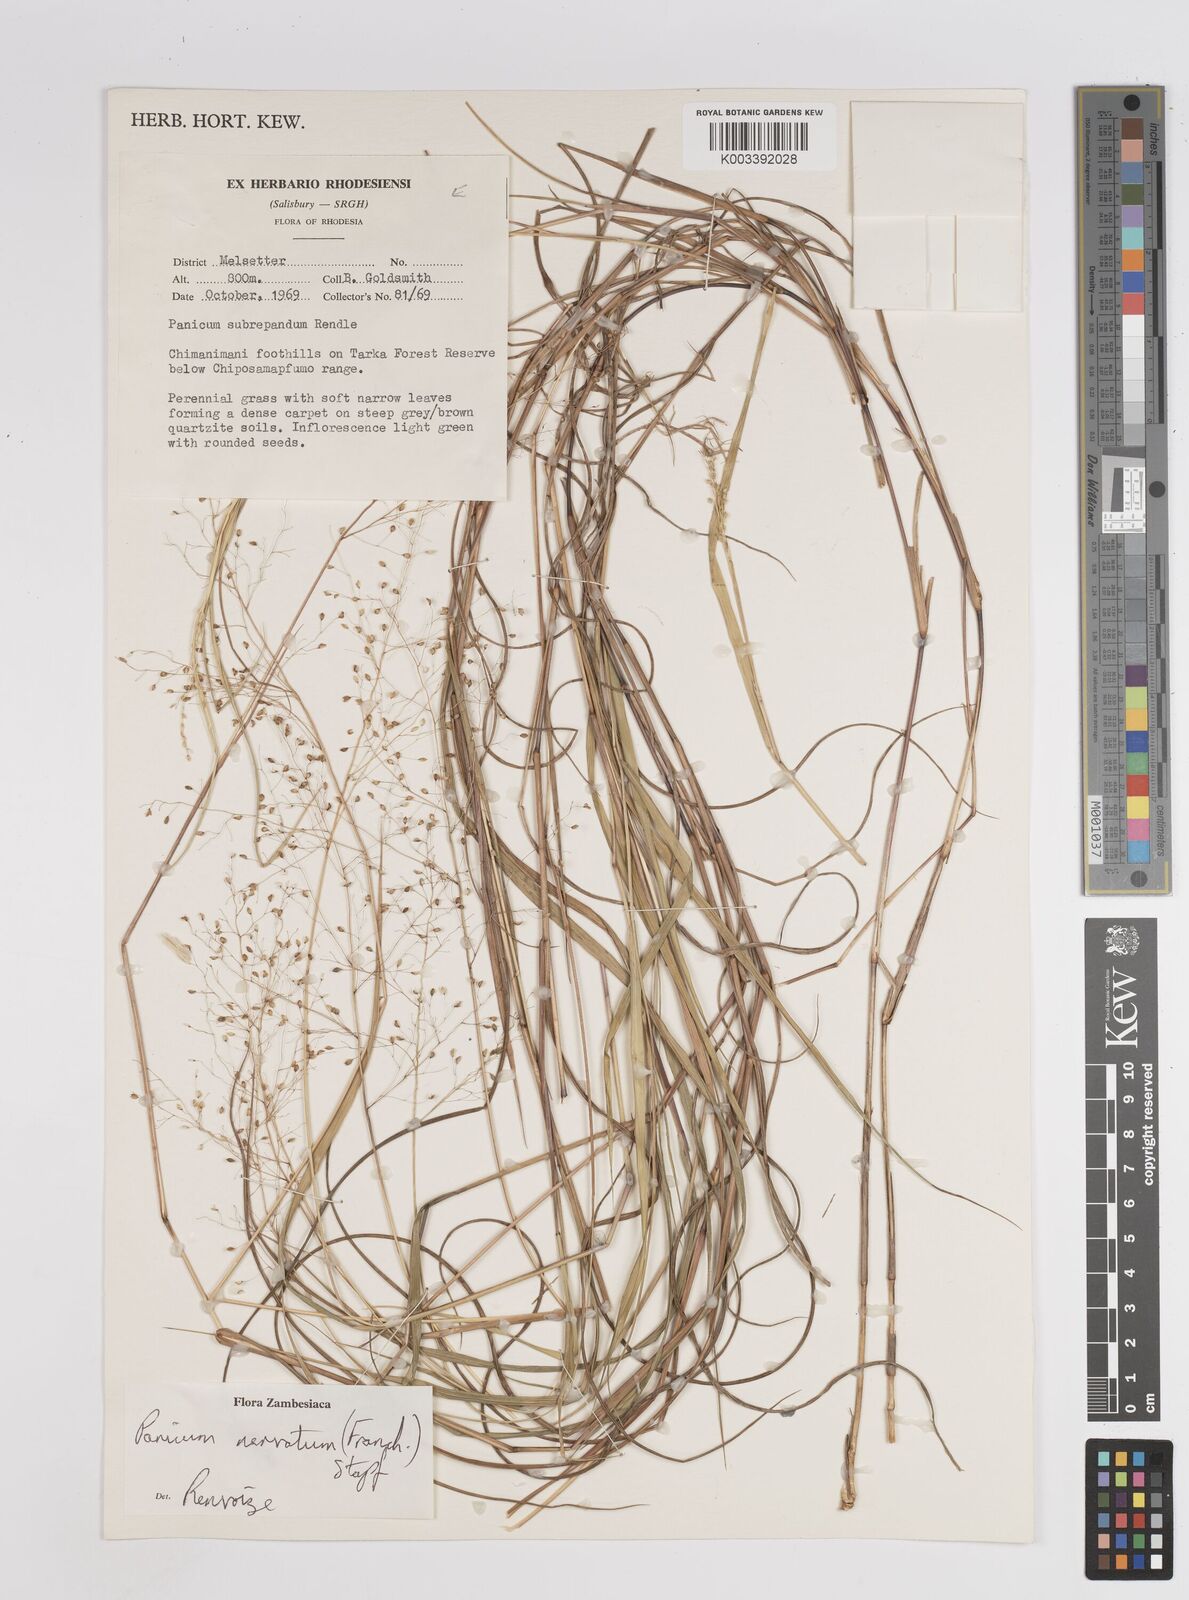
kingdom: Plantae
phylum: Tracheophyta
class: Liliopsida
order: Poales
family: Poaceae
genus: Trichanthecium
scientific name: Trichanthecium nervatum
